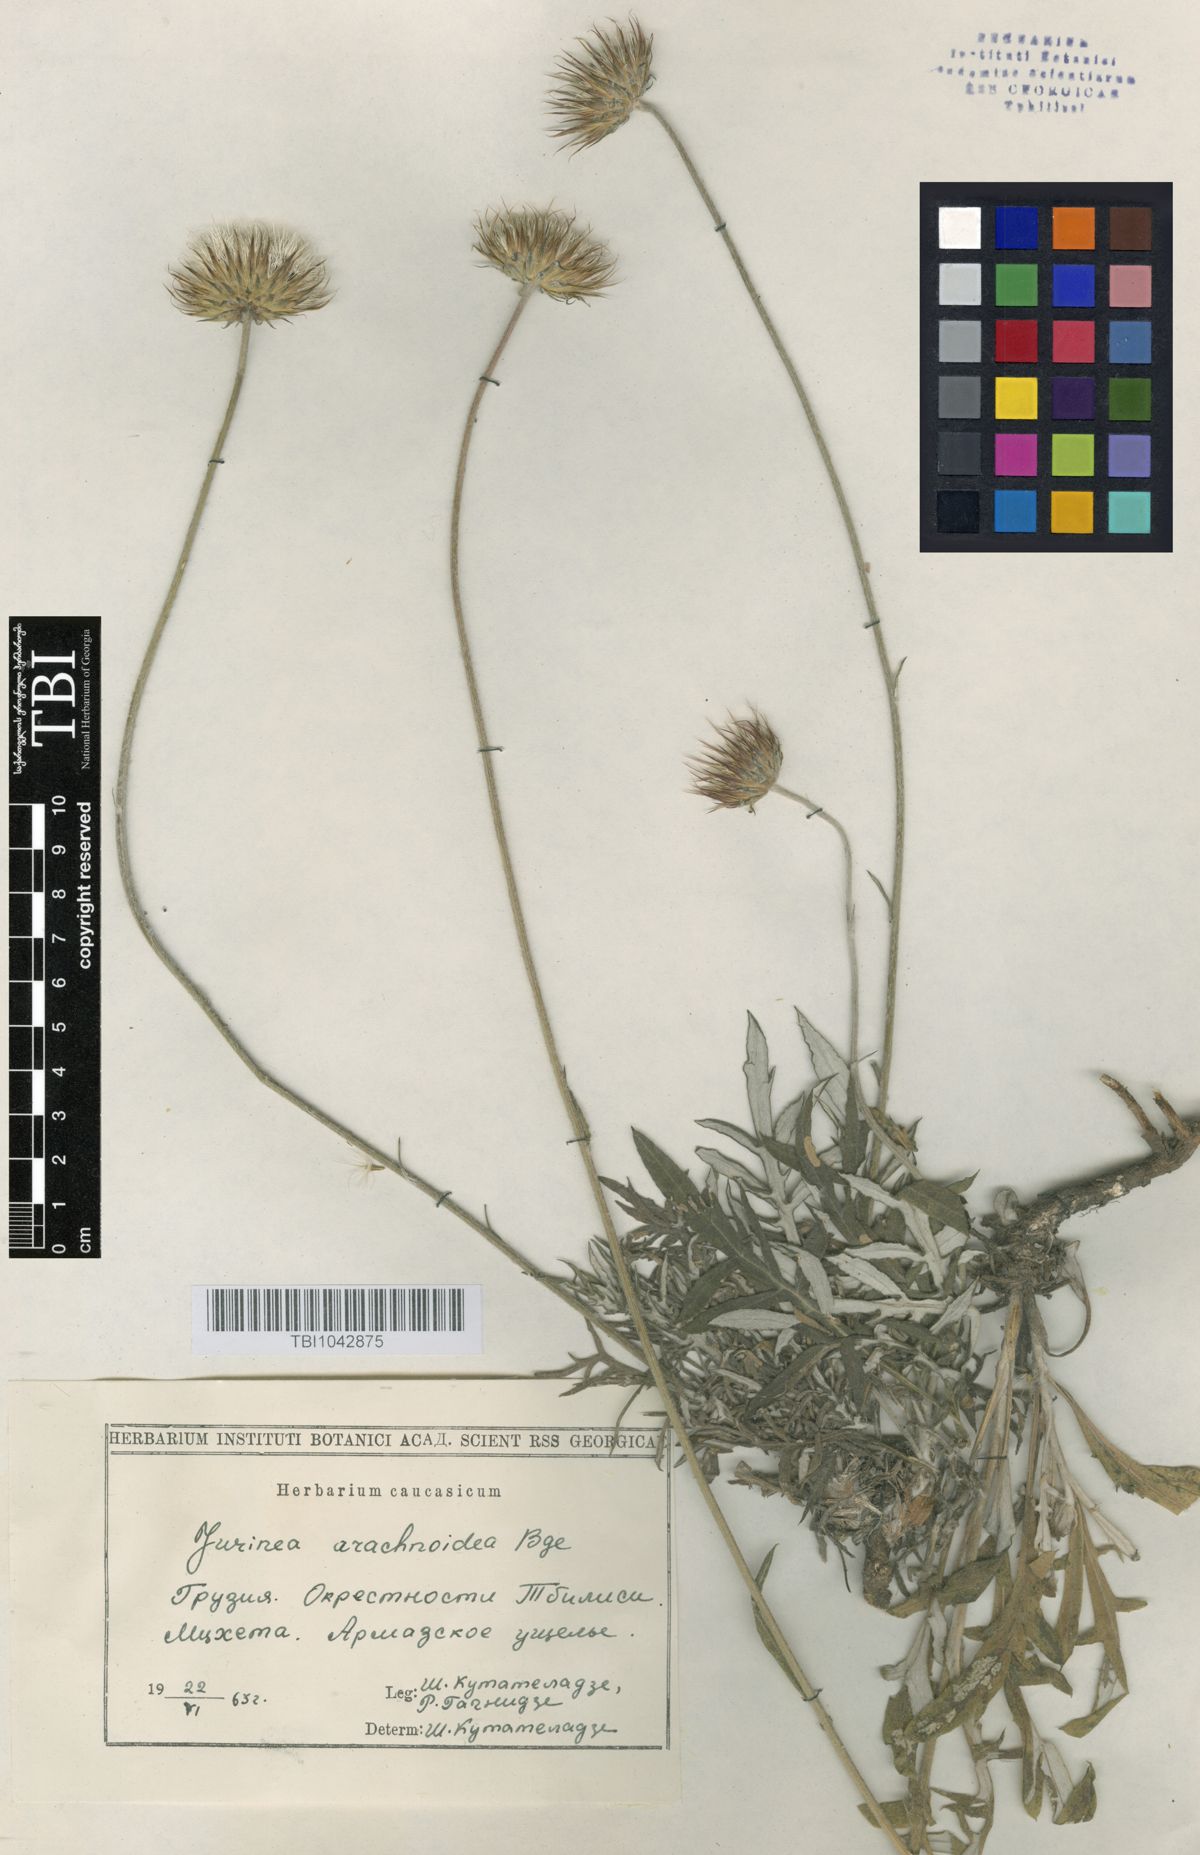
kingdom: Plantae
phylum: Tracheophyta
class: Magnoliopsida
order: Asterales
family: Asteraceae
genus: Jurinea
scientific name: Jurinea blanda
